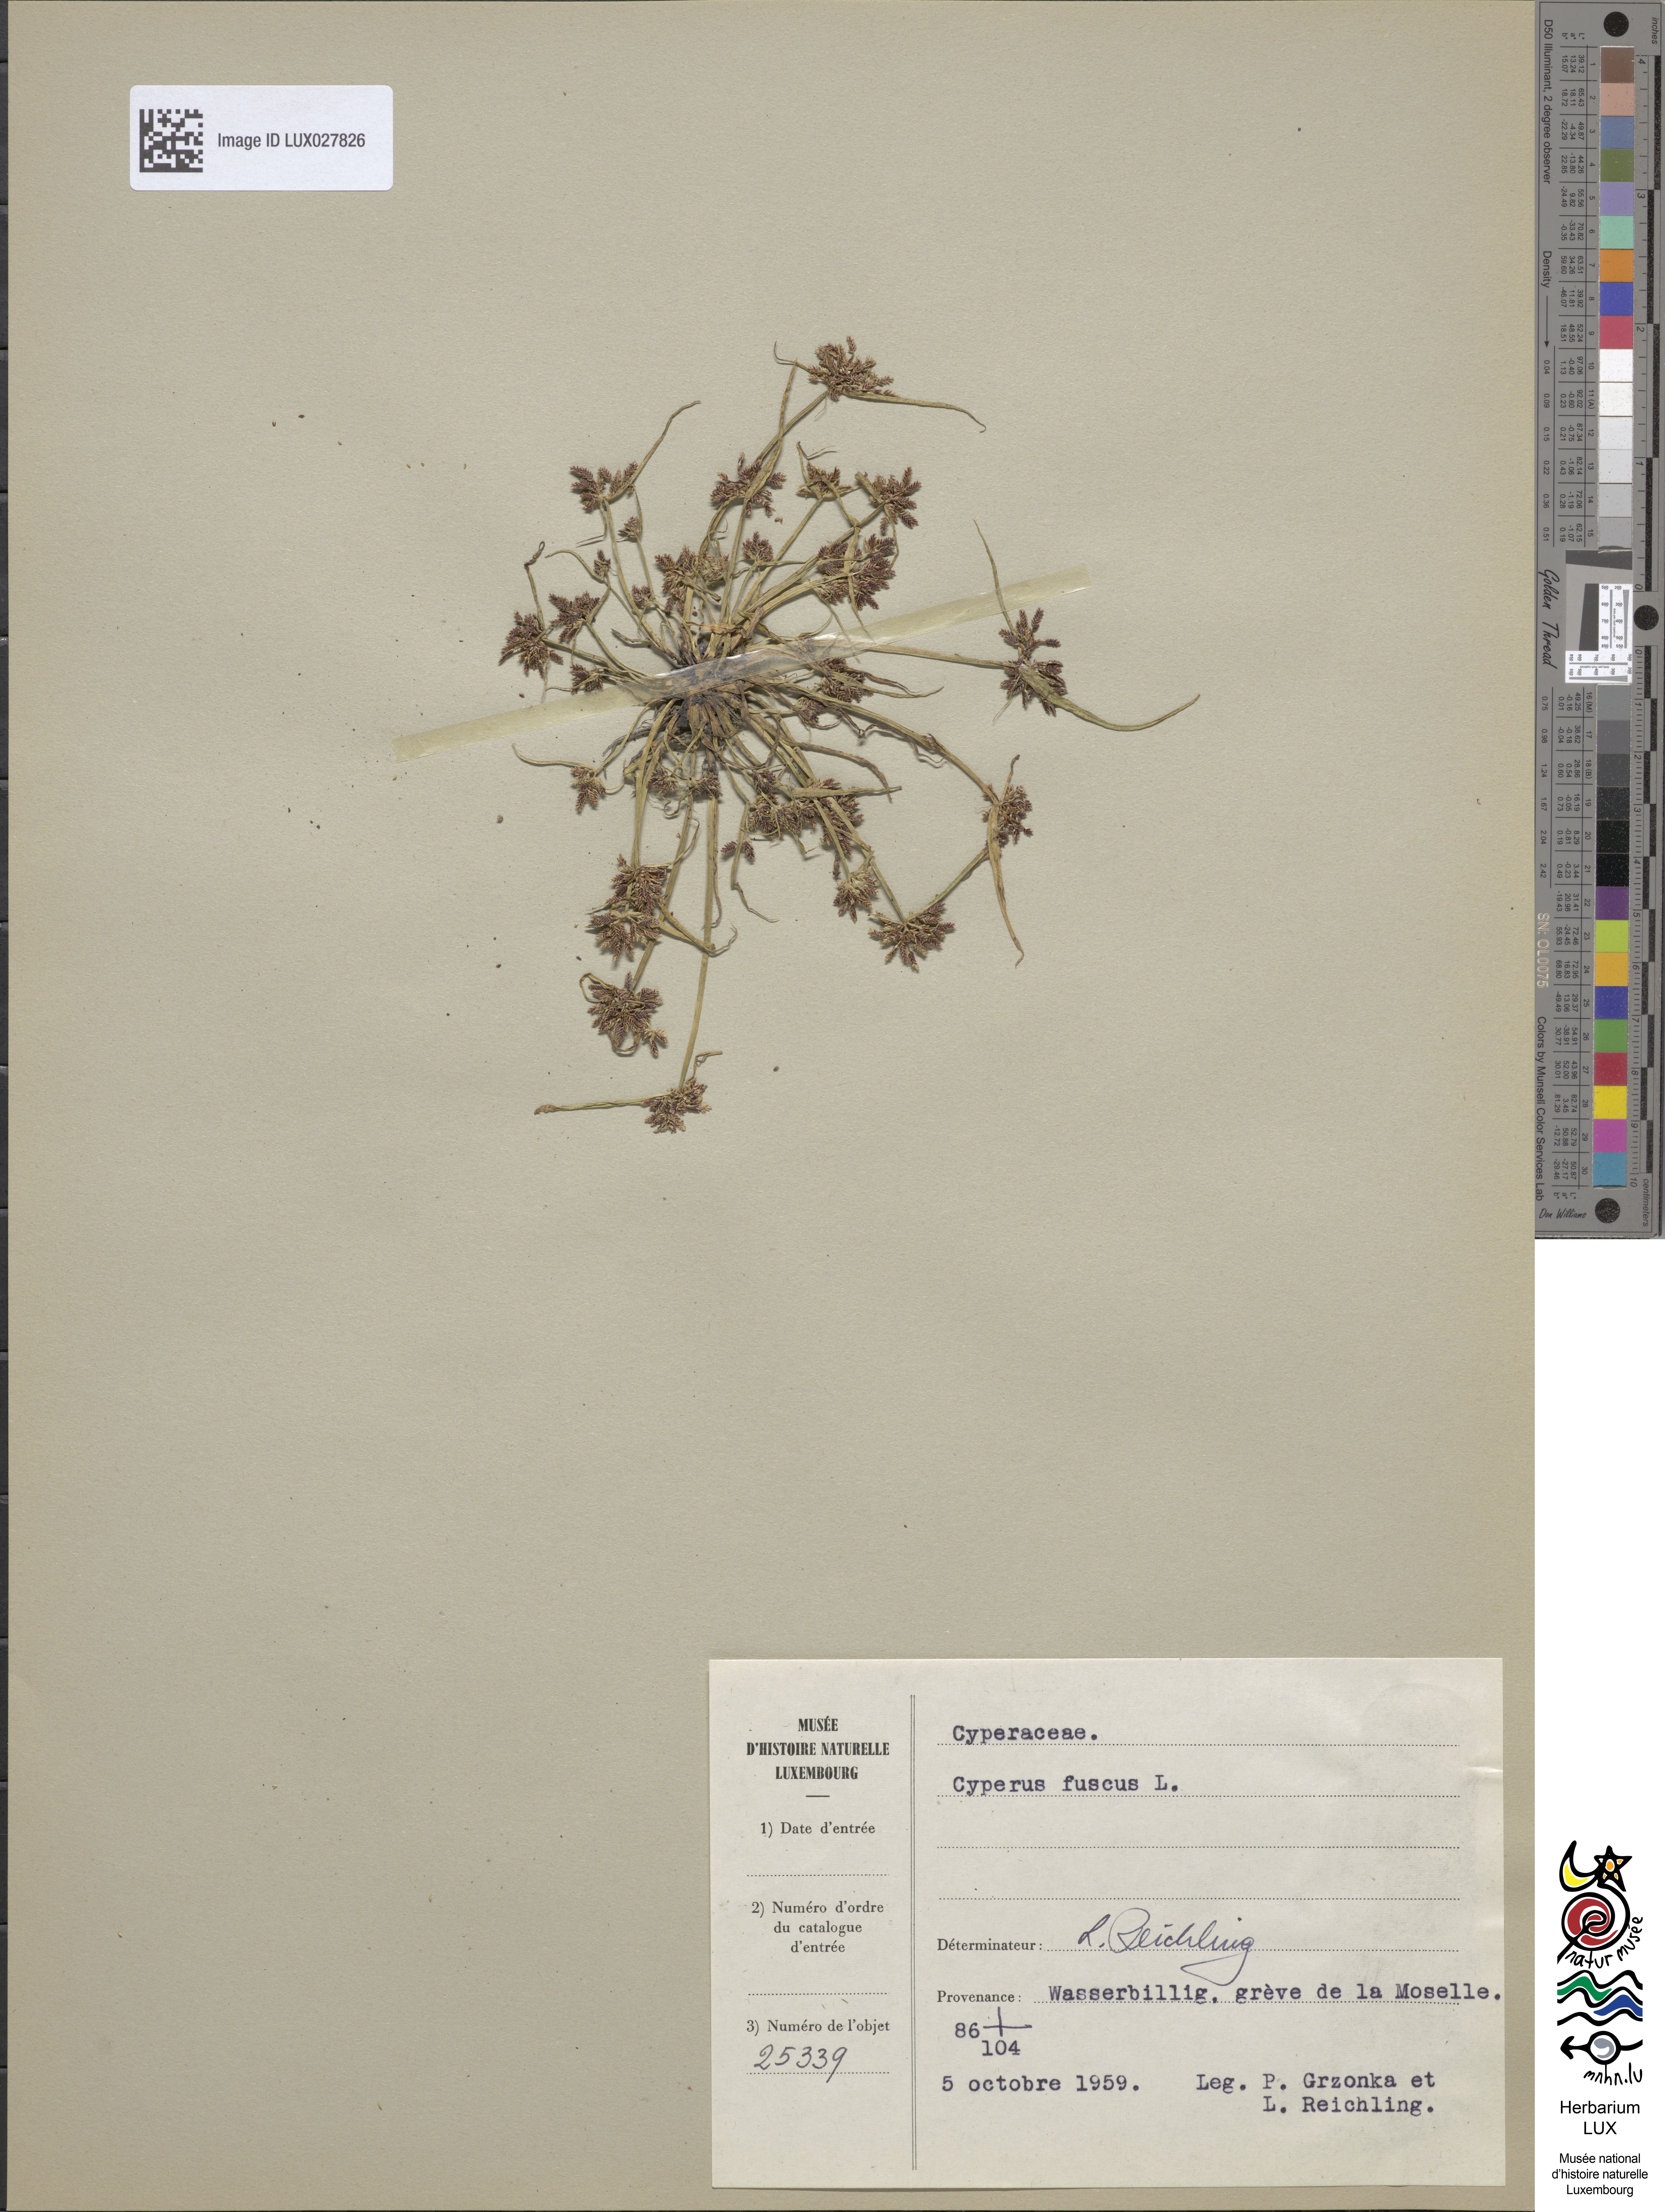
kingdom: Plantae
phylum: Tracheophyta
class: Liliopsida
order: Poales
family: Cyperaceae
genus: Cyperus
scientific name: Cyperus fuscus
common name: Brown galingale
